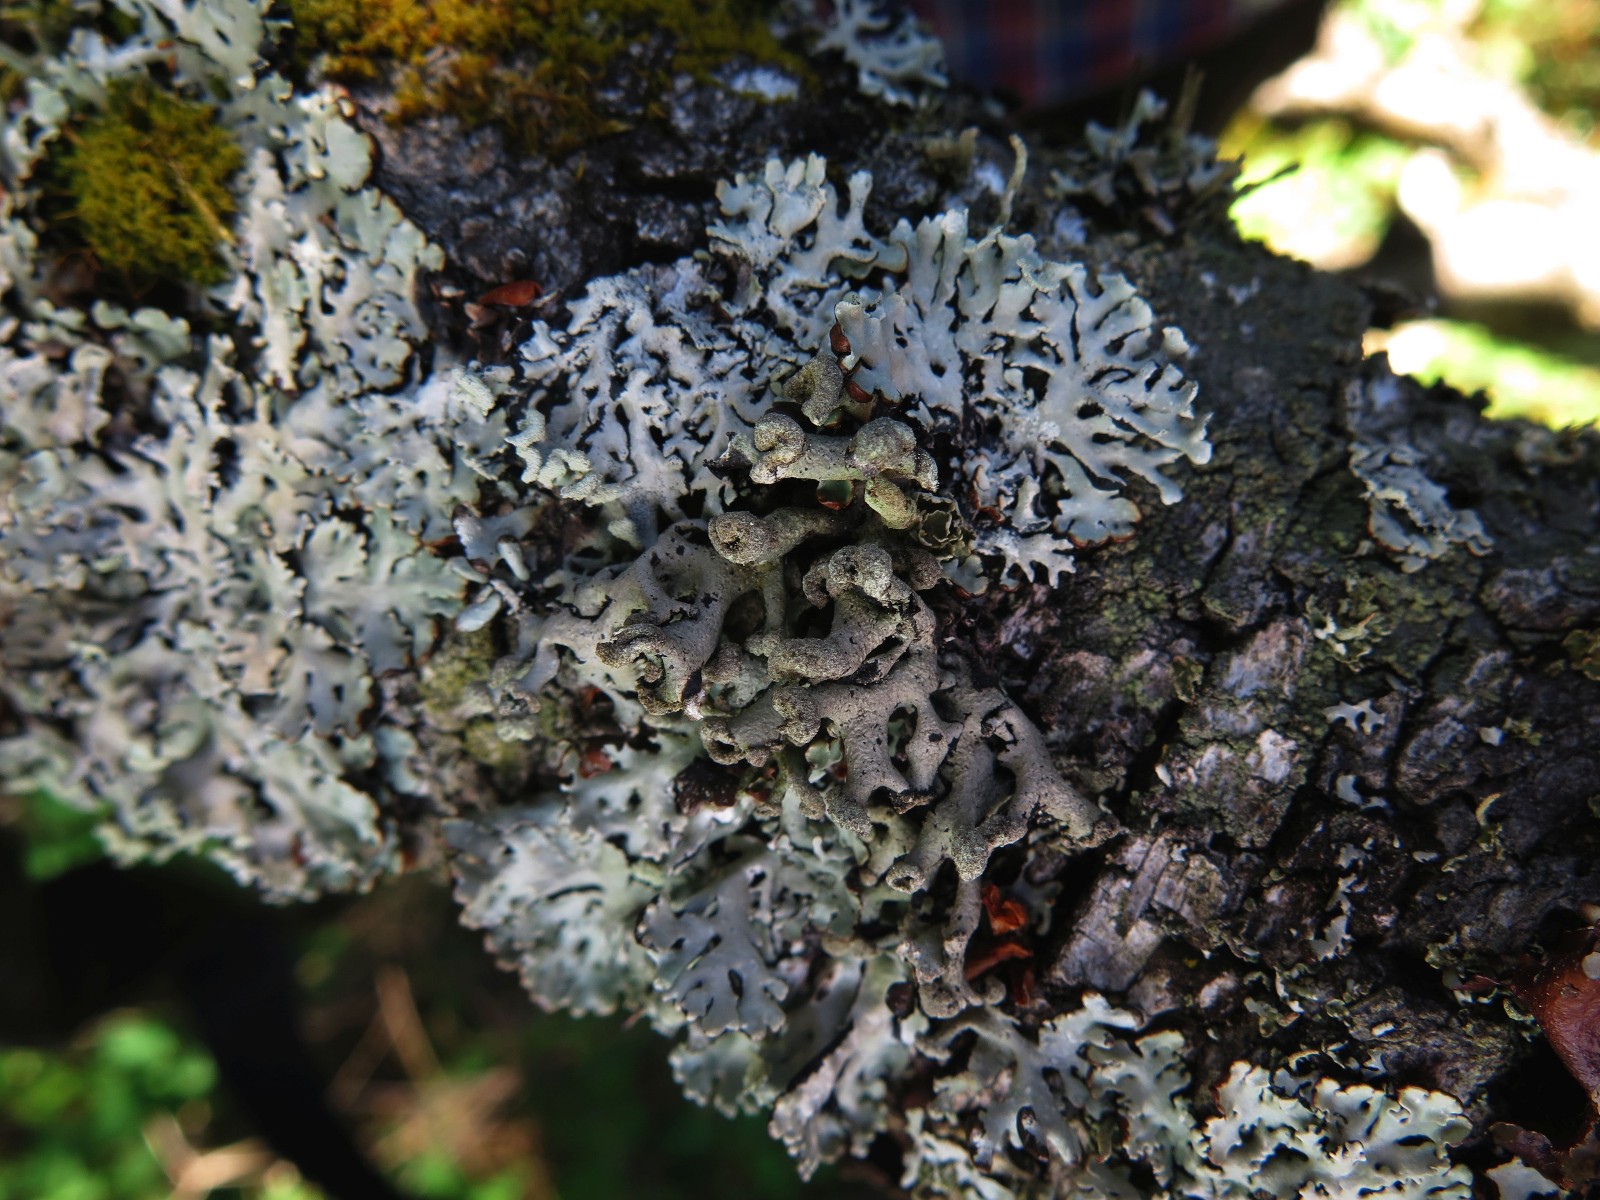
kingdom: Fungi
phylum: Ascomycota
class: Lecanoromycetes
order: Lecanorales
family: Parmeliaceae
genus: Hypogymnia
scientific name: Hypogymnia tubulosa
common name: finger-kvistlav
